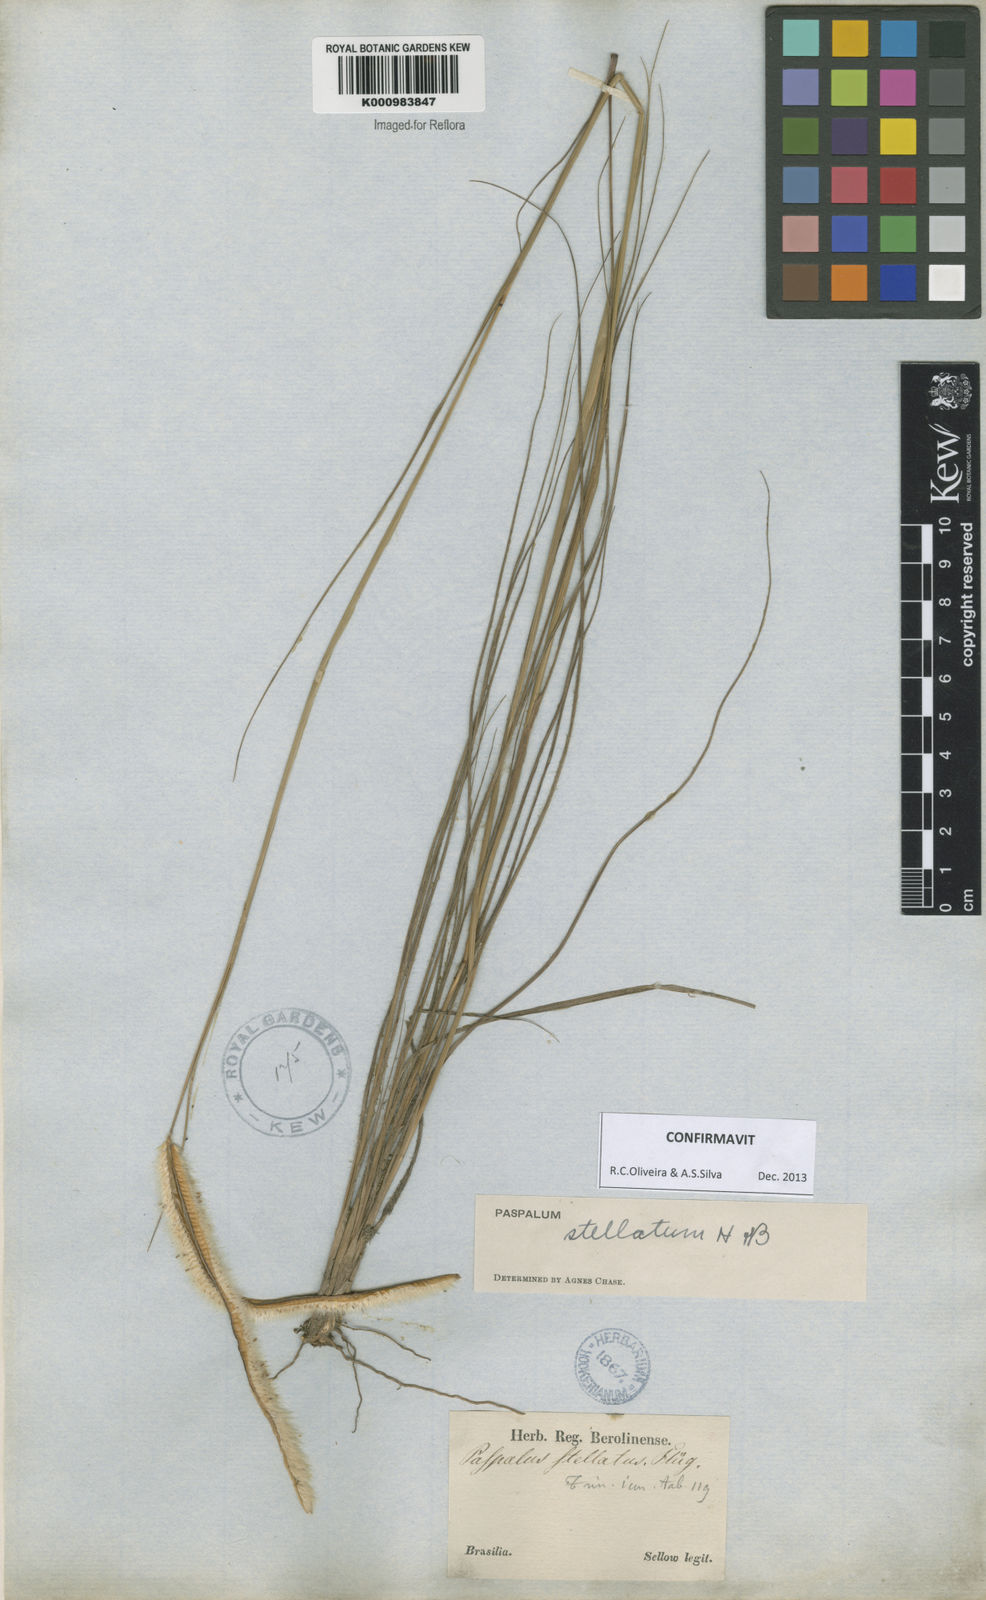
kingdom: Plantae
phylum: Tracheophyta
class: Liliopsida
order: Poales
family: Poaceae
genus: Paspalum
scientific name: Paspalum
